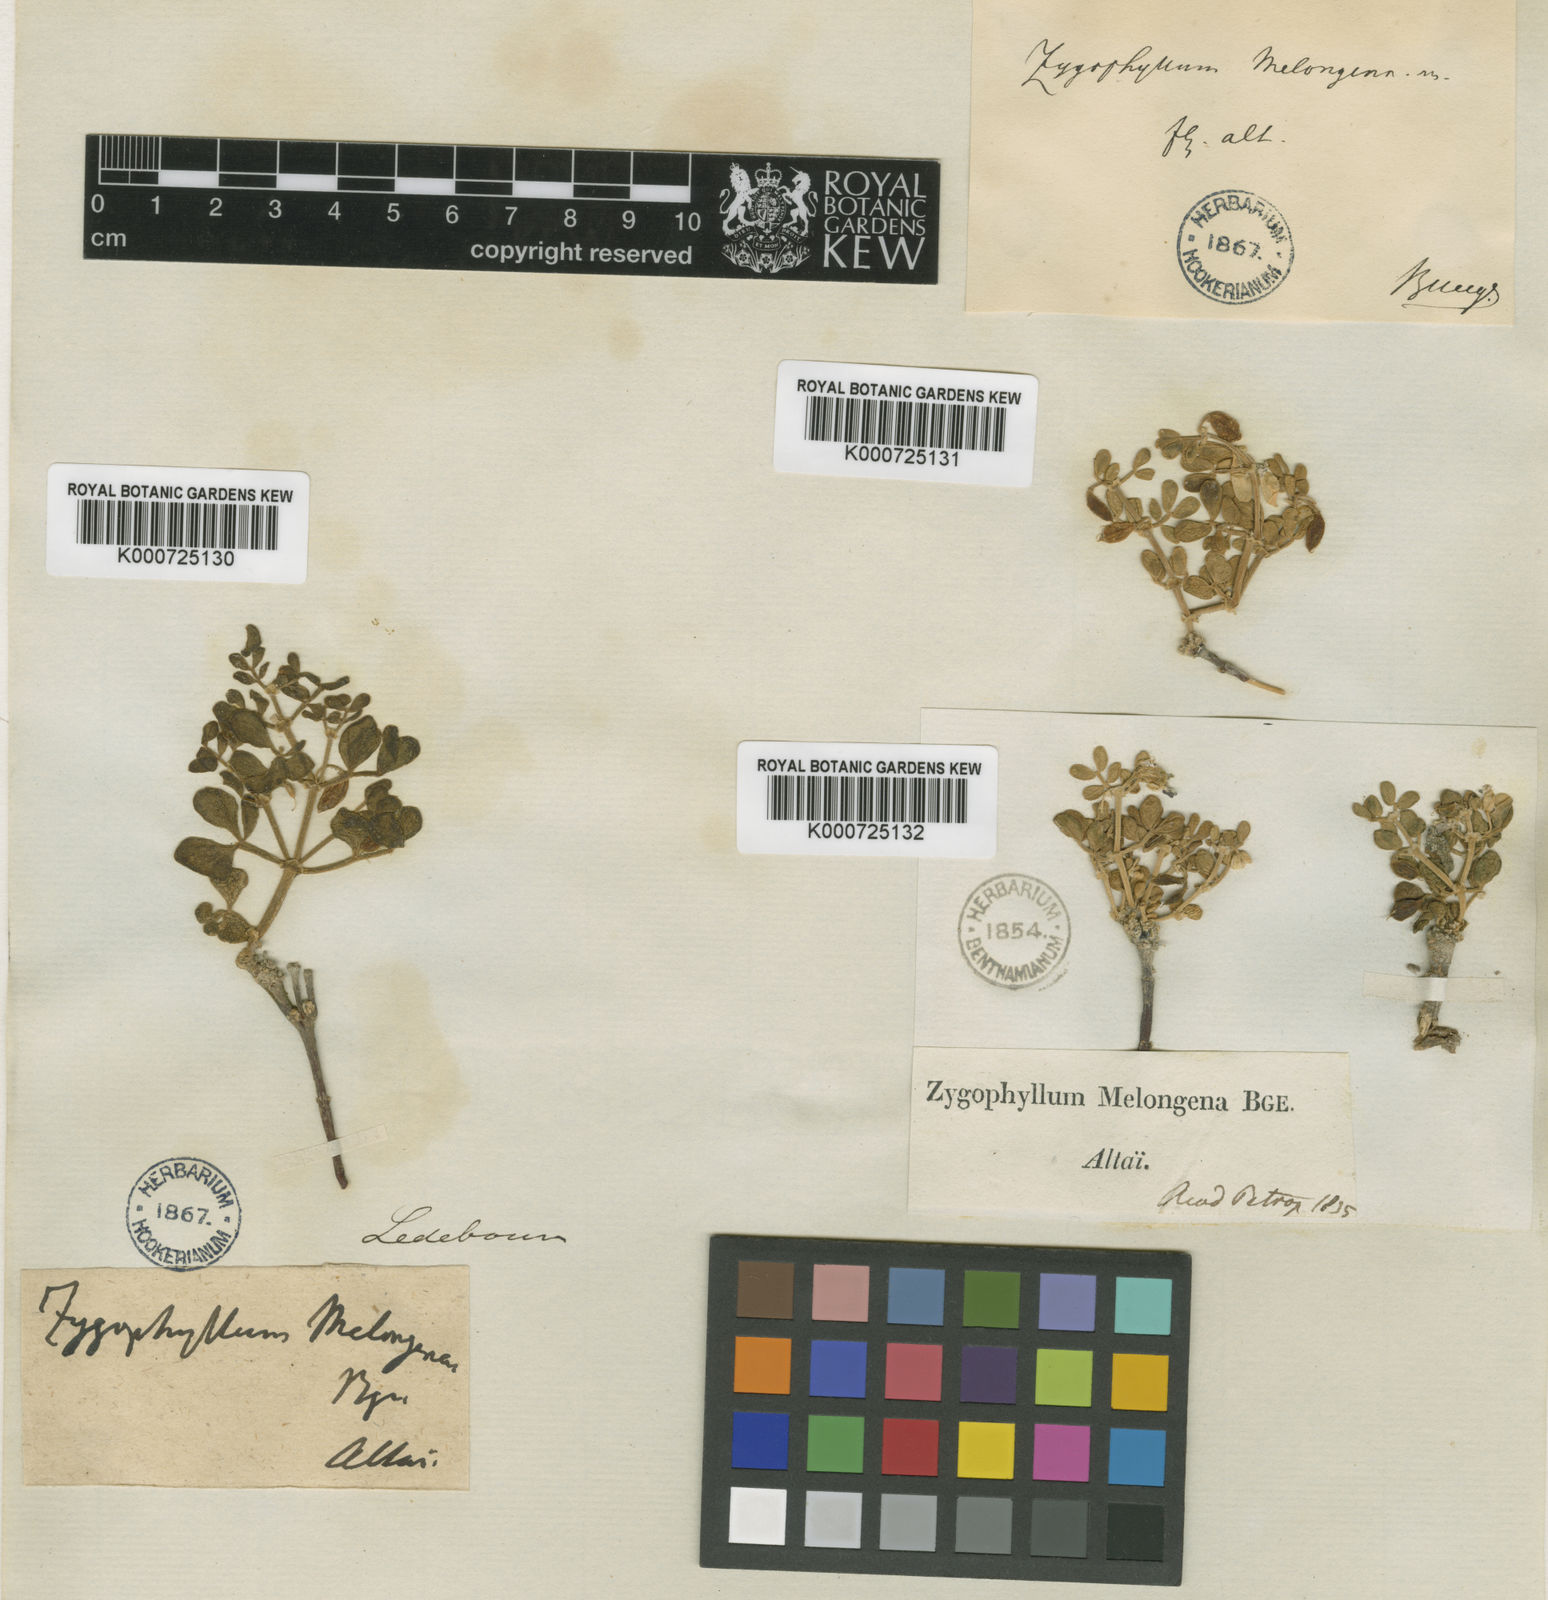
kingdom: Plantae
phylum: Tracheophyta
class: Magnoliopsida
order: Zygophyllales
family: Zygophyllaceae
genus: Zygophyllum
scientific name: Zygophyllum melongena
